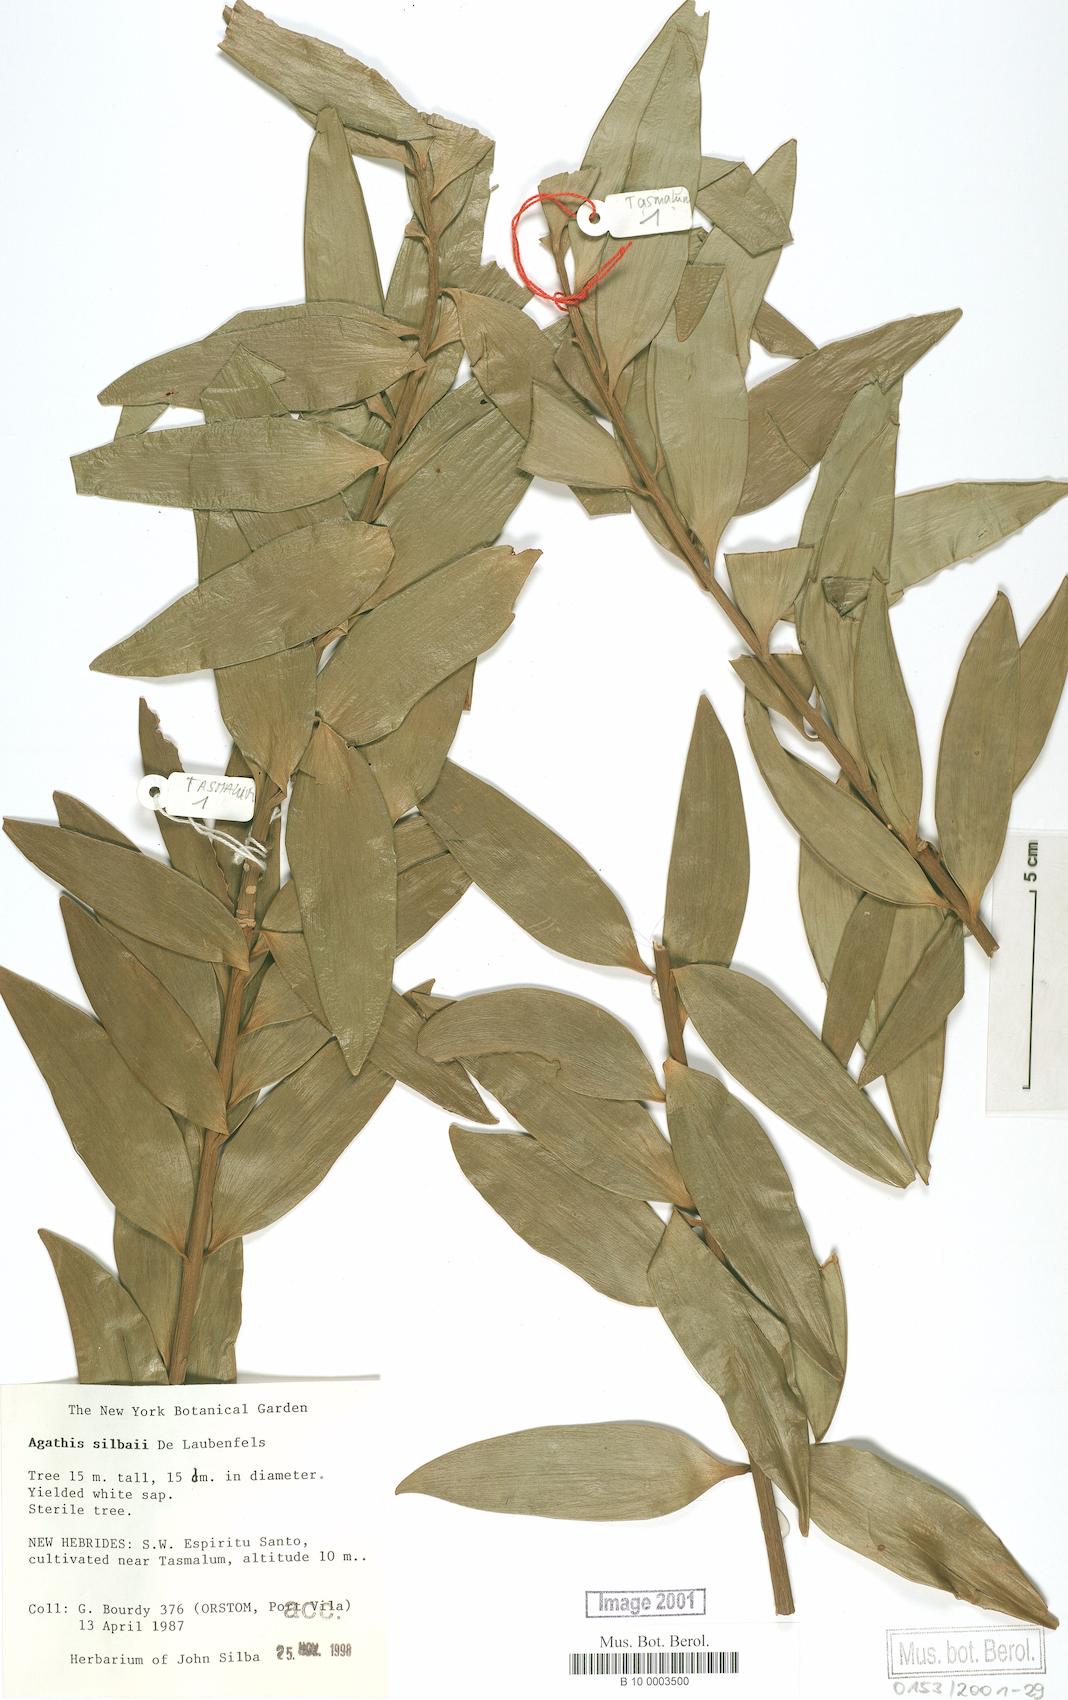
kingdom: Plantae
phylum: Tracheophyta
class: Pinopsida
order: Pinales
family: Araucariaceae
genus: Agathis
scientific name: Agathis silbae
